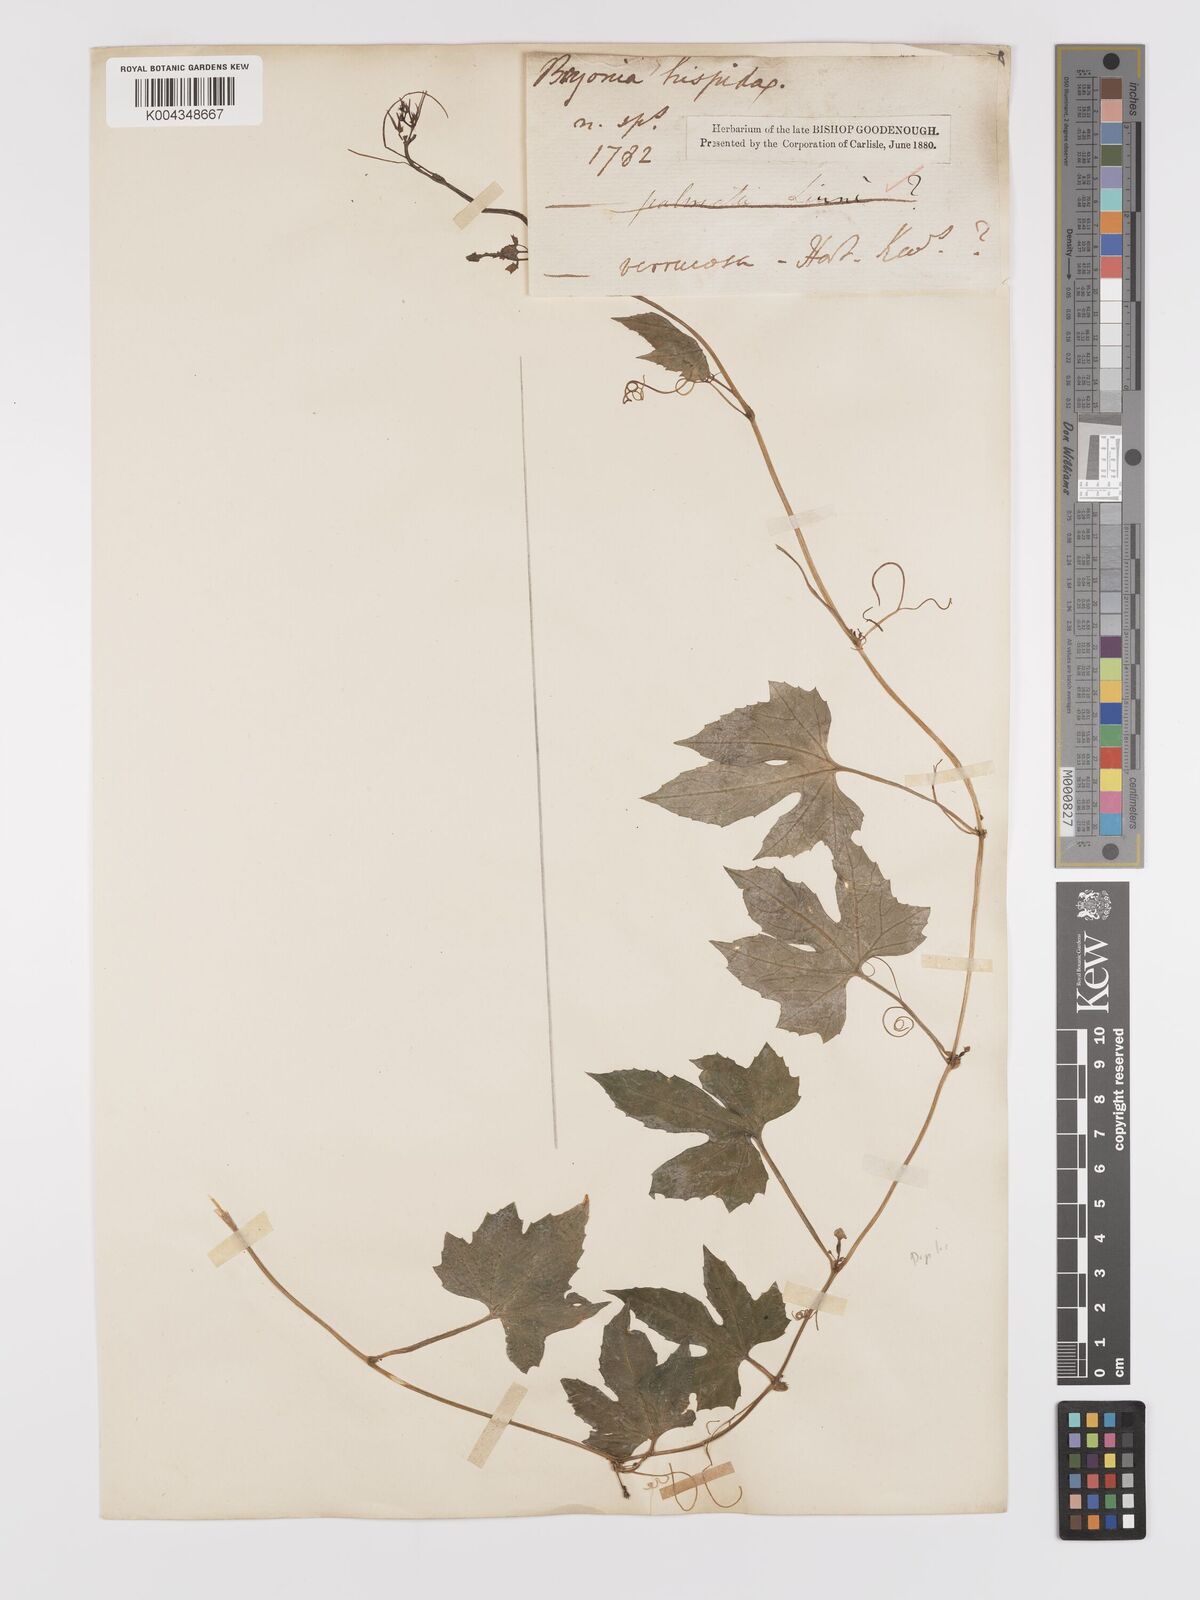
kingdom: Plantae
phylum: Tracheophyta
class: Magnoliopsida
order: Cucurbitales
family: Cucurbitaceae
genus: Diplocyclos
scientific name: Diplocyclos palmatus
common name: Striped-cucumber
